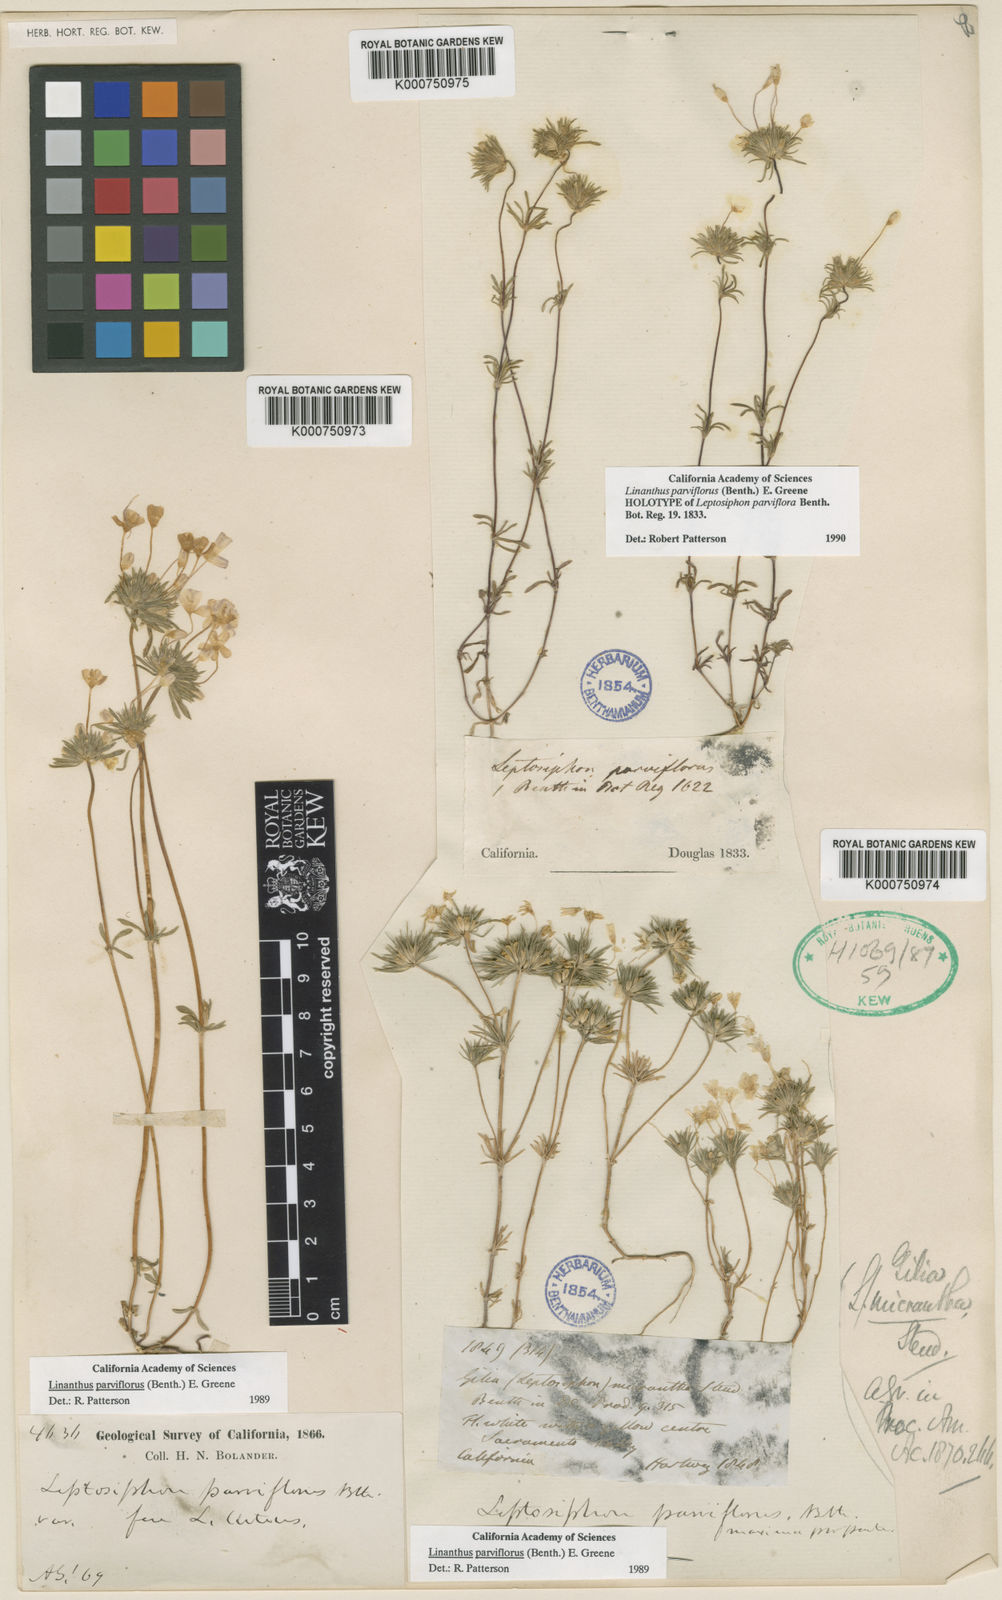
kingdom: Plantae
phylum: Tracheophyta
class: Magnoliopsida
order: Ericales
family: Polemoniaceae
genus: Leptosiphon
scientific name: Leptosiphon parviflorus
